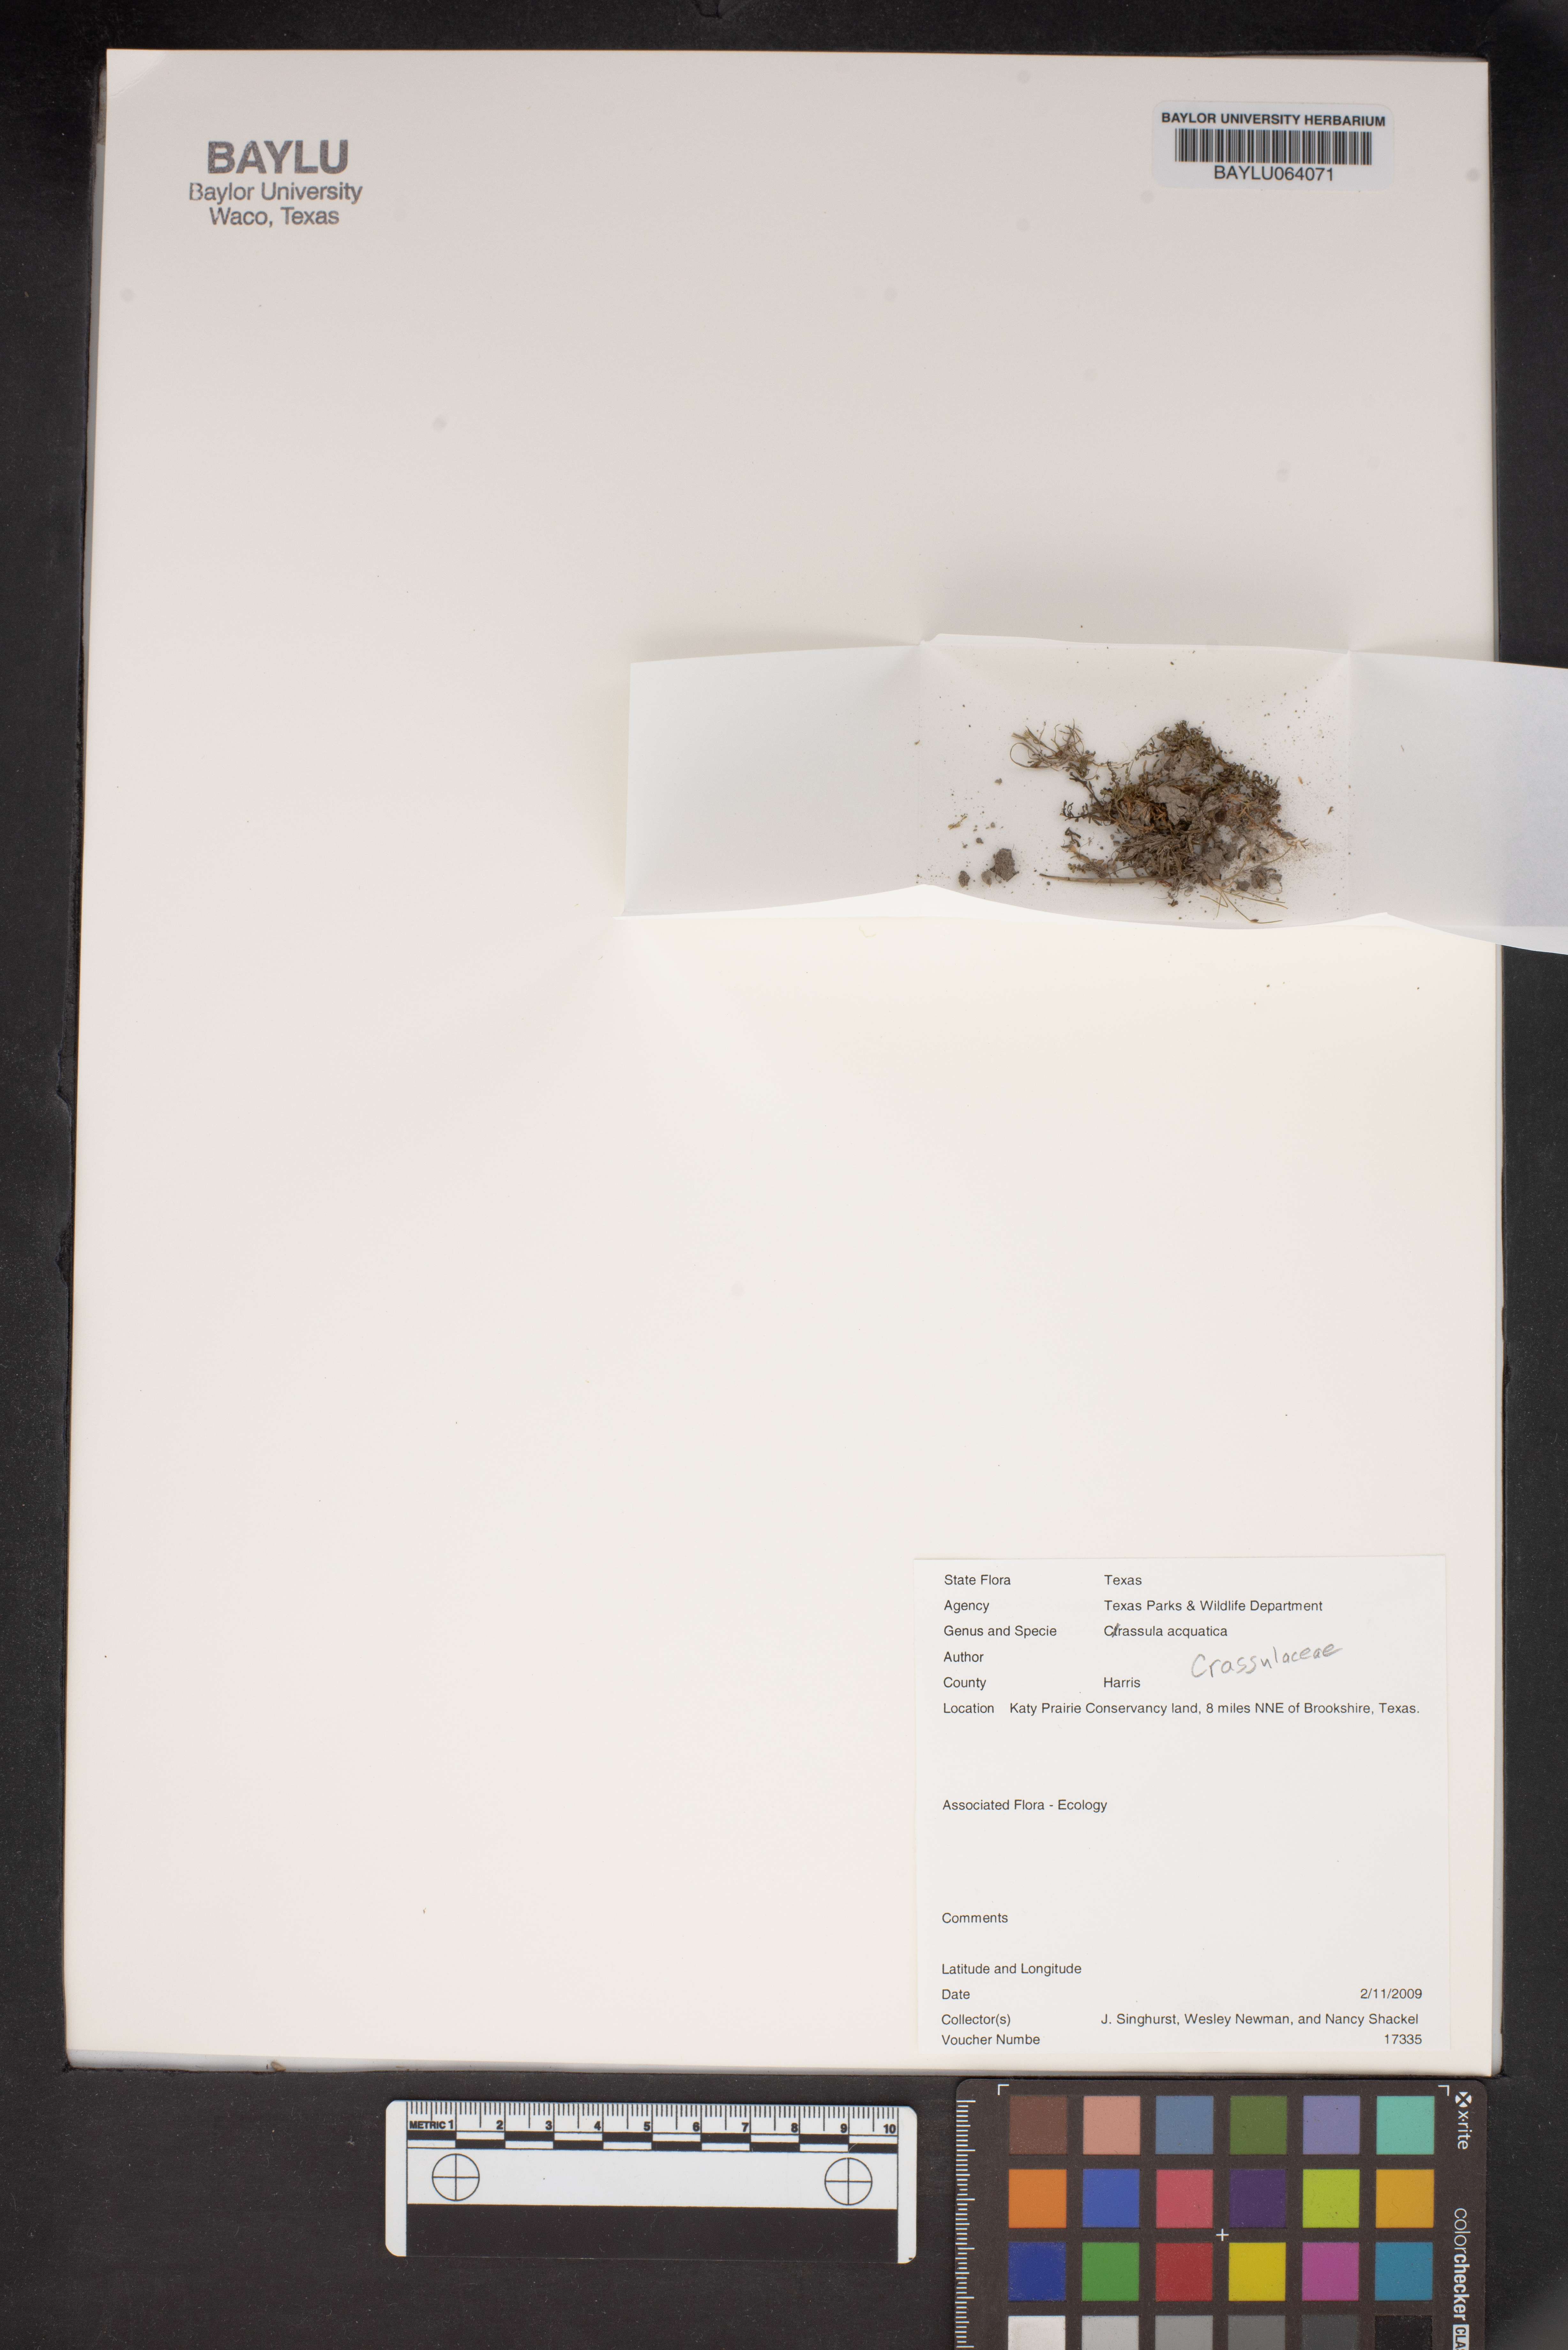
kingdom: Plantae
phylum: Tracheophyta
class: Magnoliopsida
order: Saxifragales
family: Crassulaceae
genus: Crassula
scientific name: Crassula aquatica
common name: Pigmyweed
